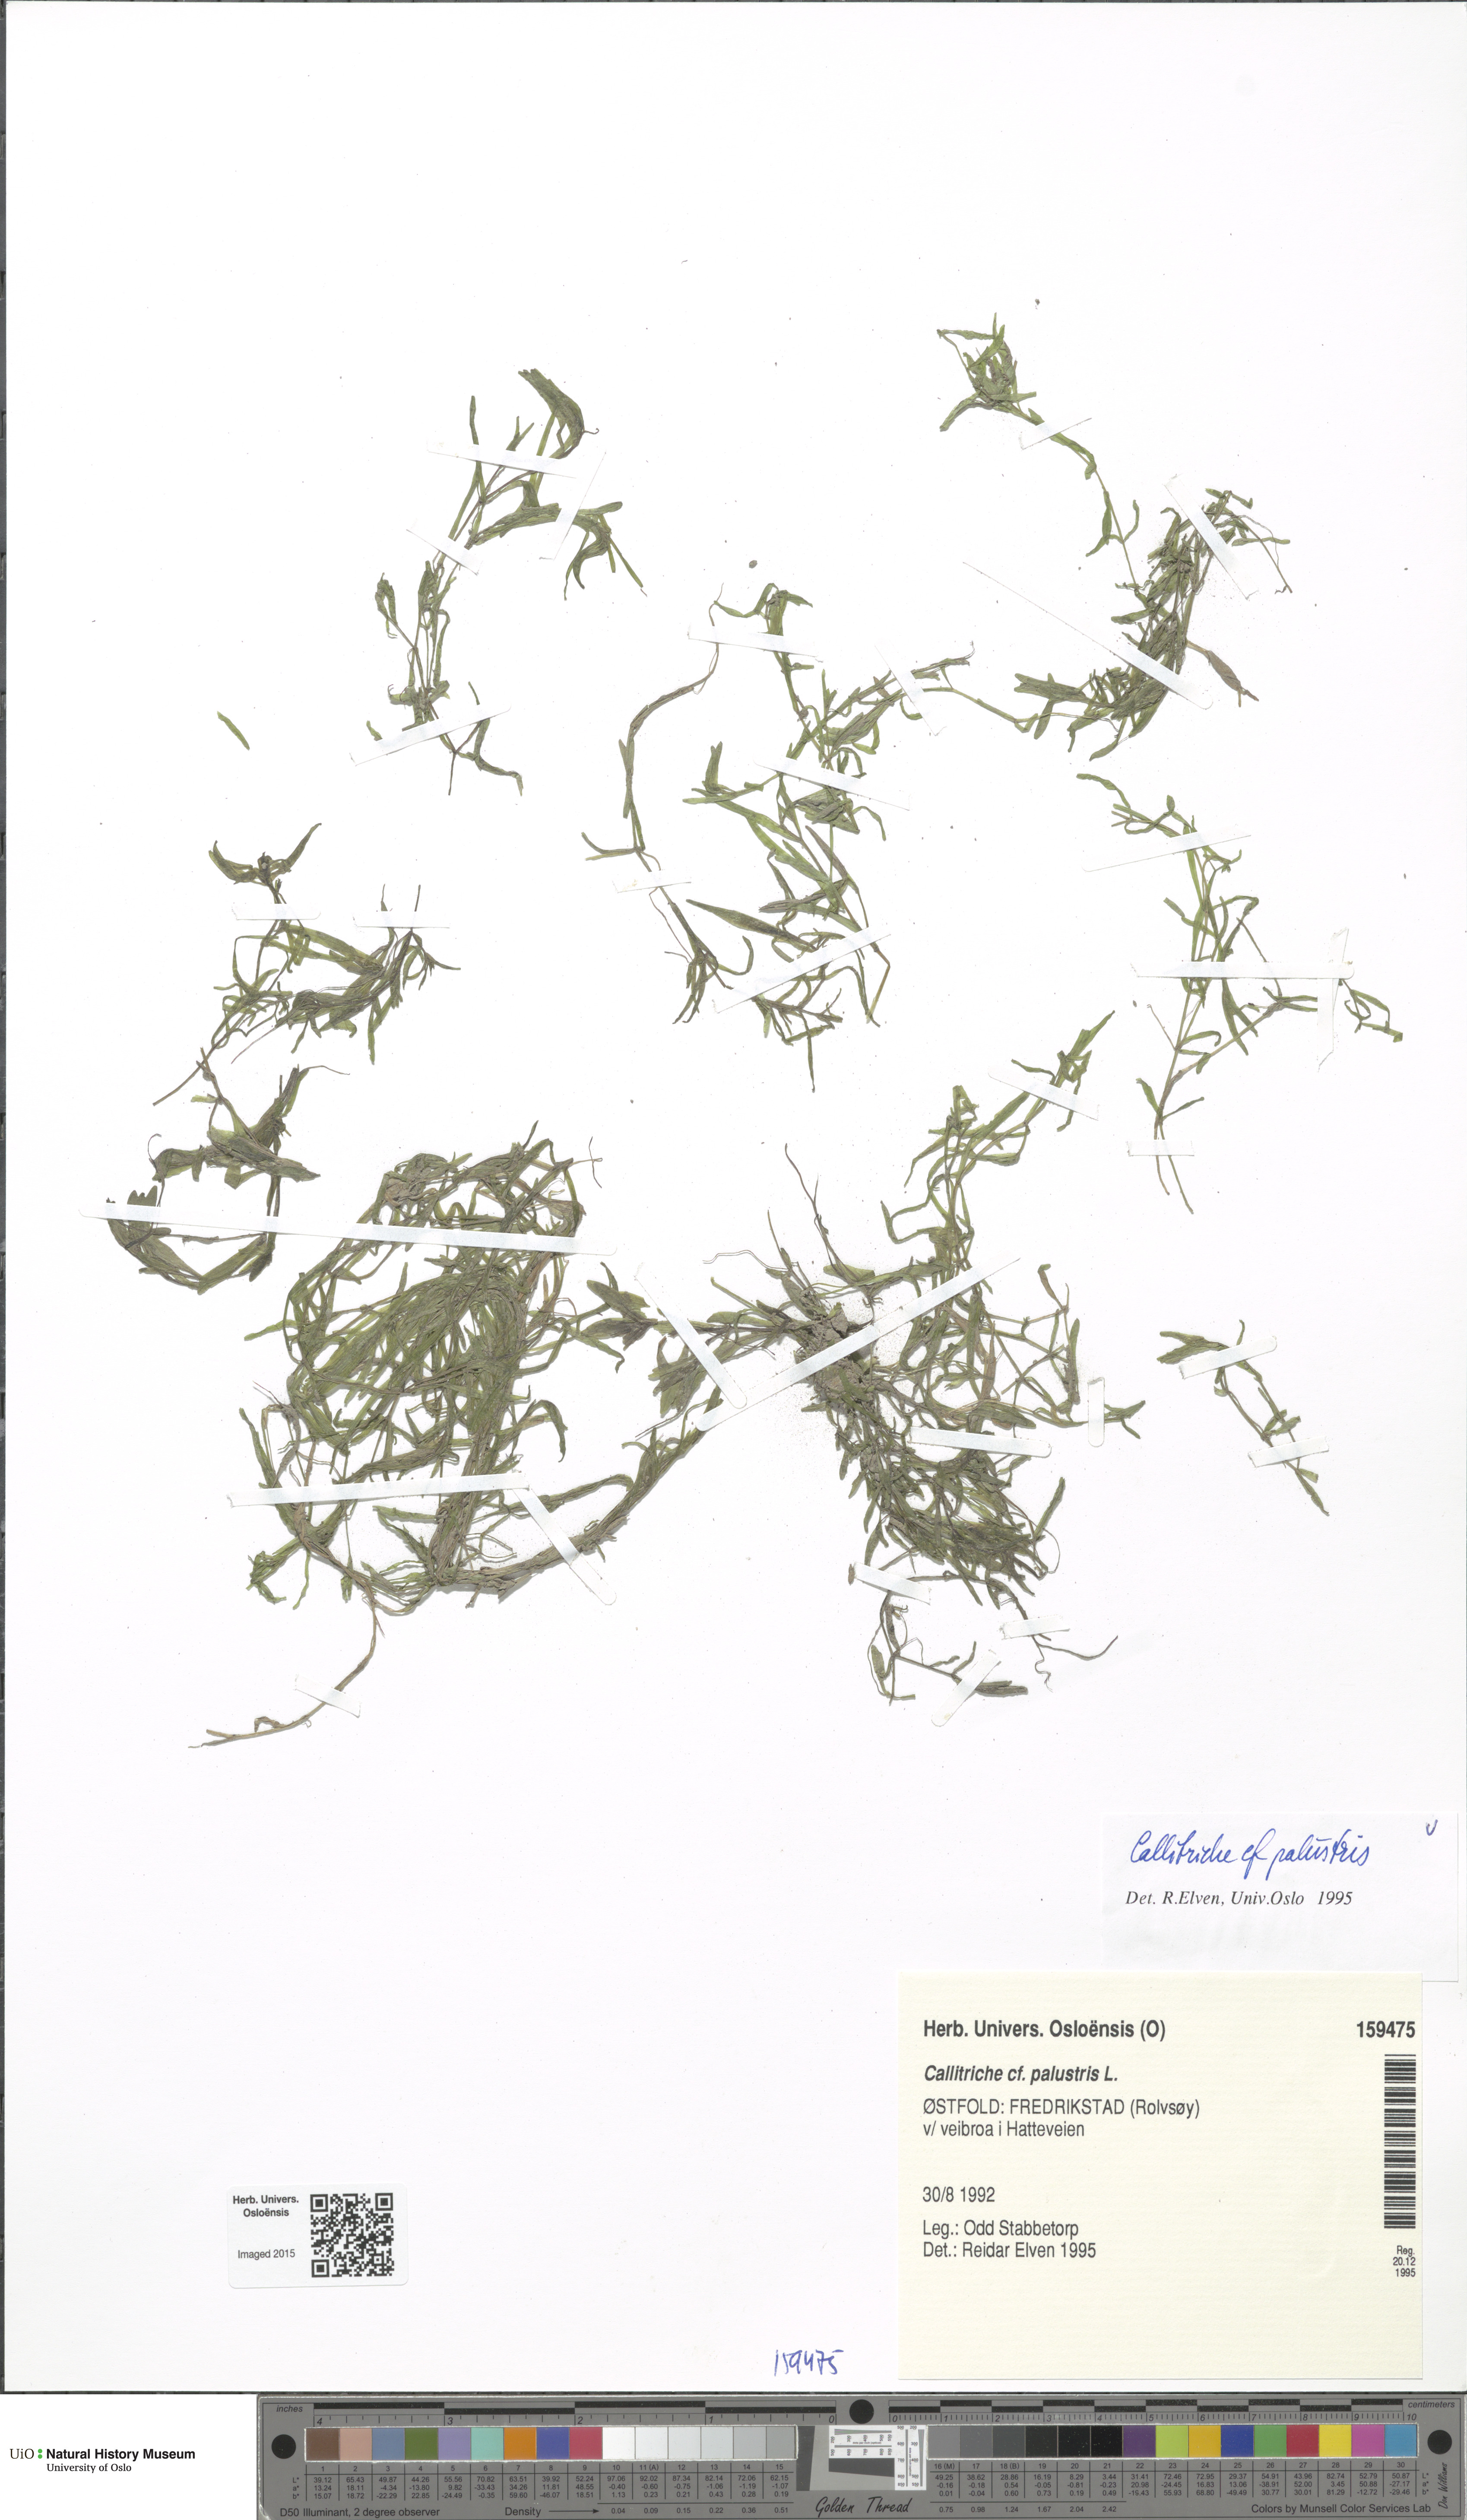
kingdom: Plantae
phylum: Tracheophyta
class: Magnoliopsida
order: Lamiales
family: Plantaginaceae
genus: Callitriche
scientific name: Callitriche palustris
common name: Spring water-starwort
